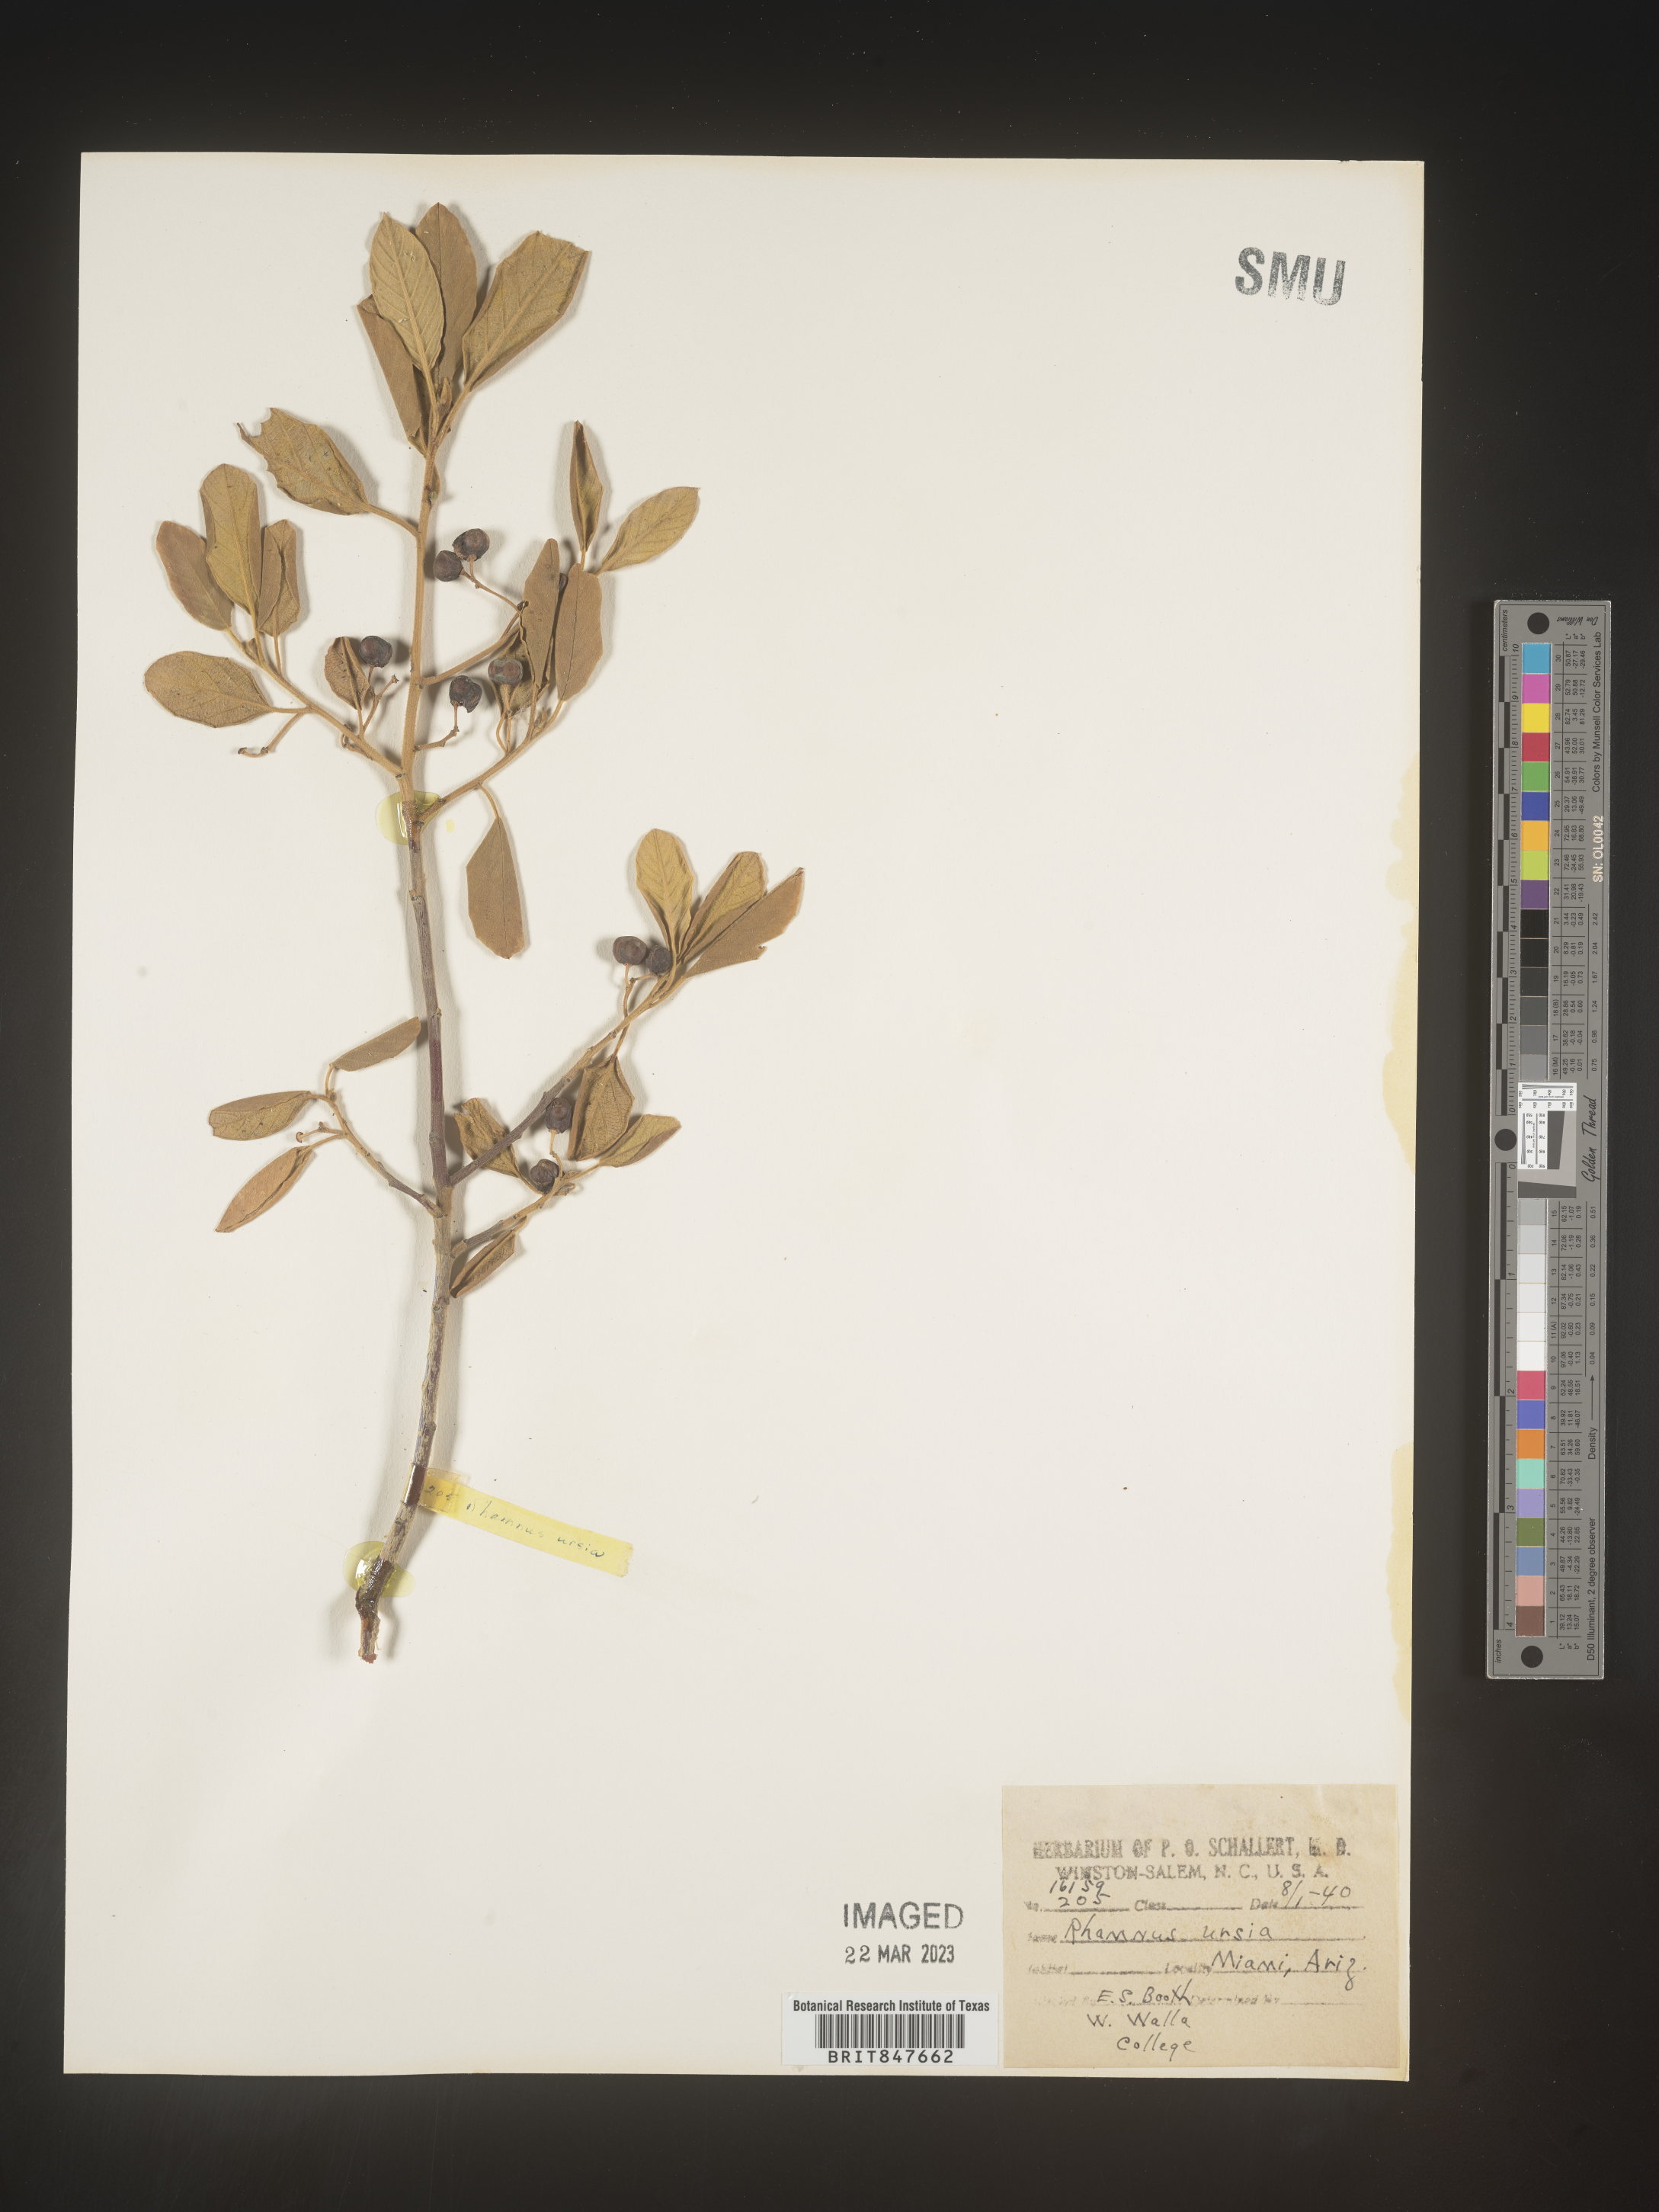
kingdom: Plantae
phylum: Tracheophyta
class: Magnoliopsida
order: Rosales
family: Rhamnaceae
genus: Rhamnus
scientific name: Rhamnus
